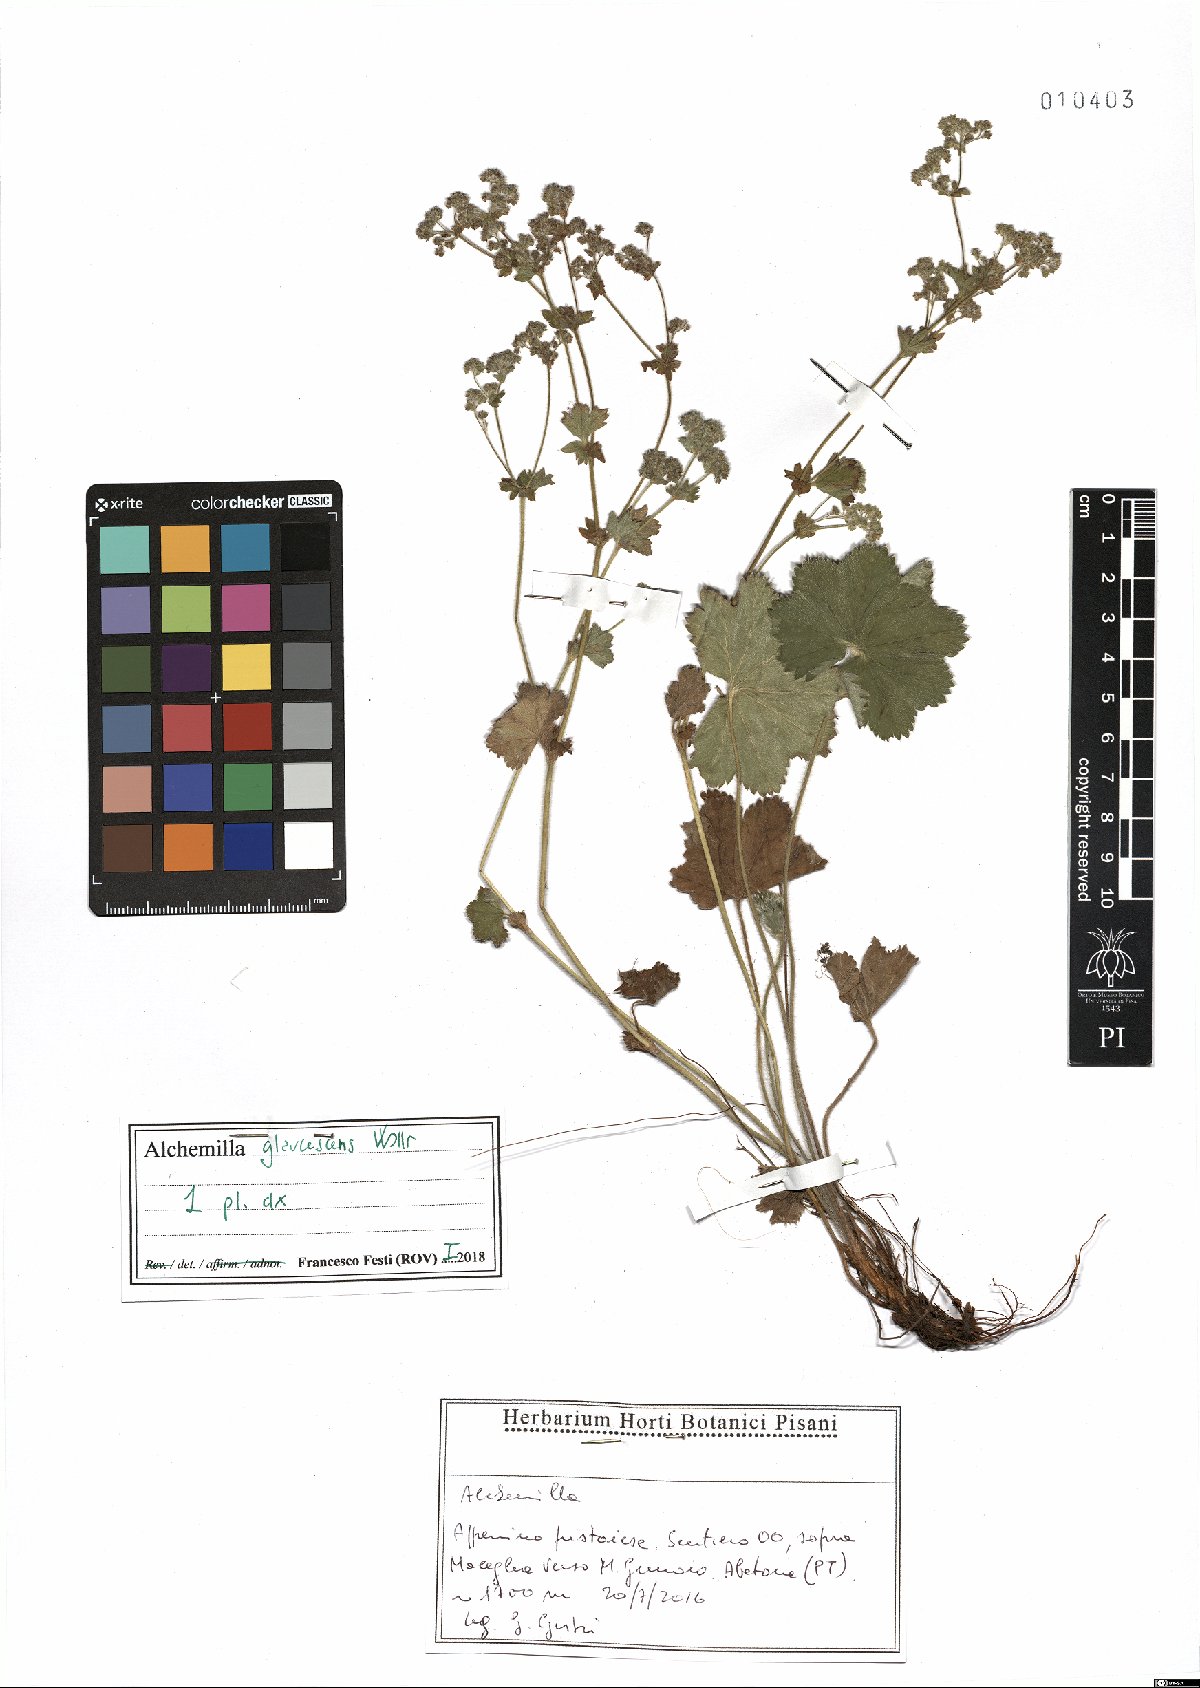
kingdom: Plantae
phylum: Tracheophyta
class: Magnoliopsida
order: Rosales
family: Rosaceae
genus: Alchemilla
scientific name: Alchemilla glaucescens
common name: Silky lady's mantle
